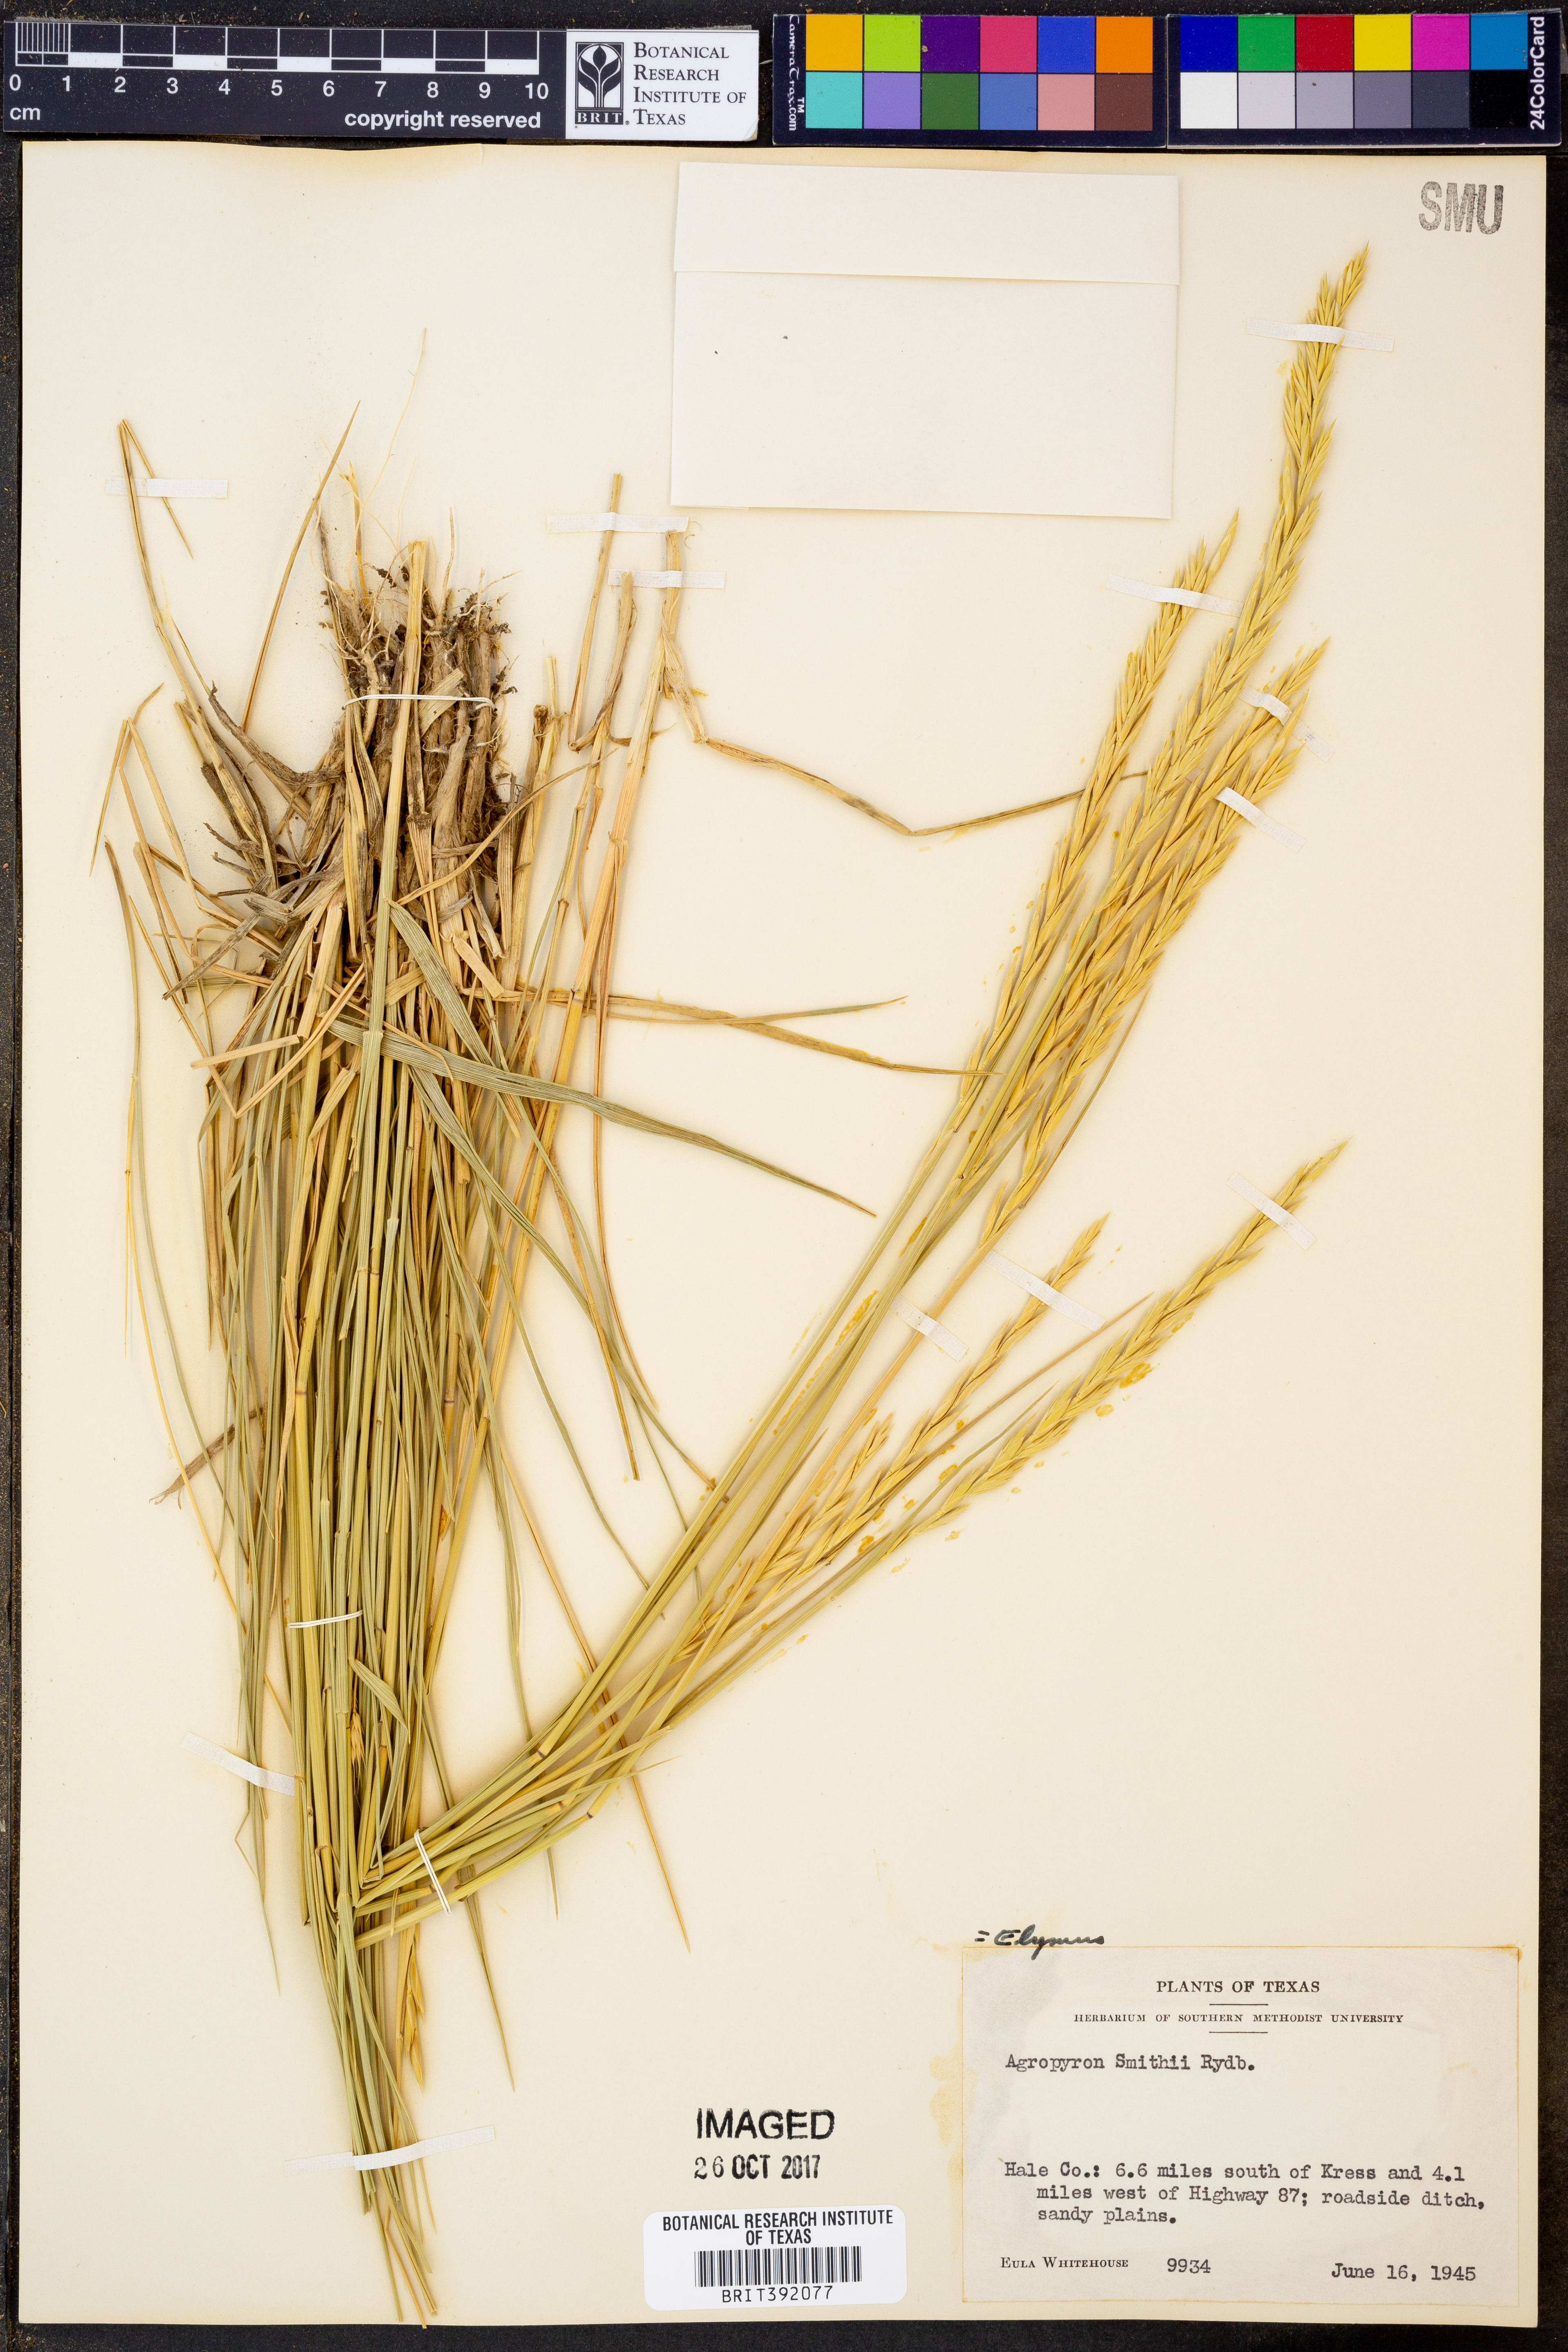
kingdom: Plantae
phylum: Tracheophyta
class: Liliopsida
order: Poales
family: Poaceae
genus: Elymus
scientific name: Elymus smithii
